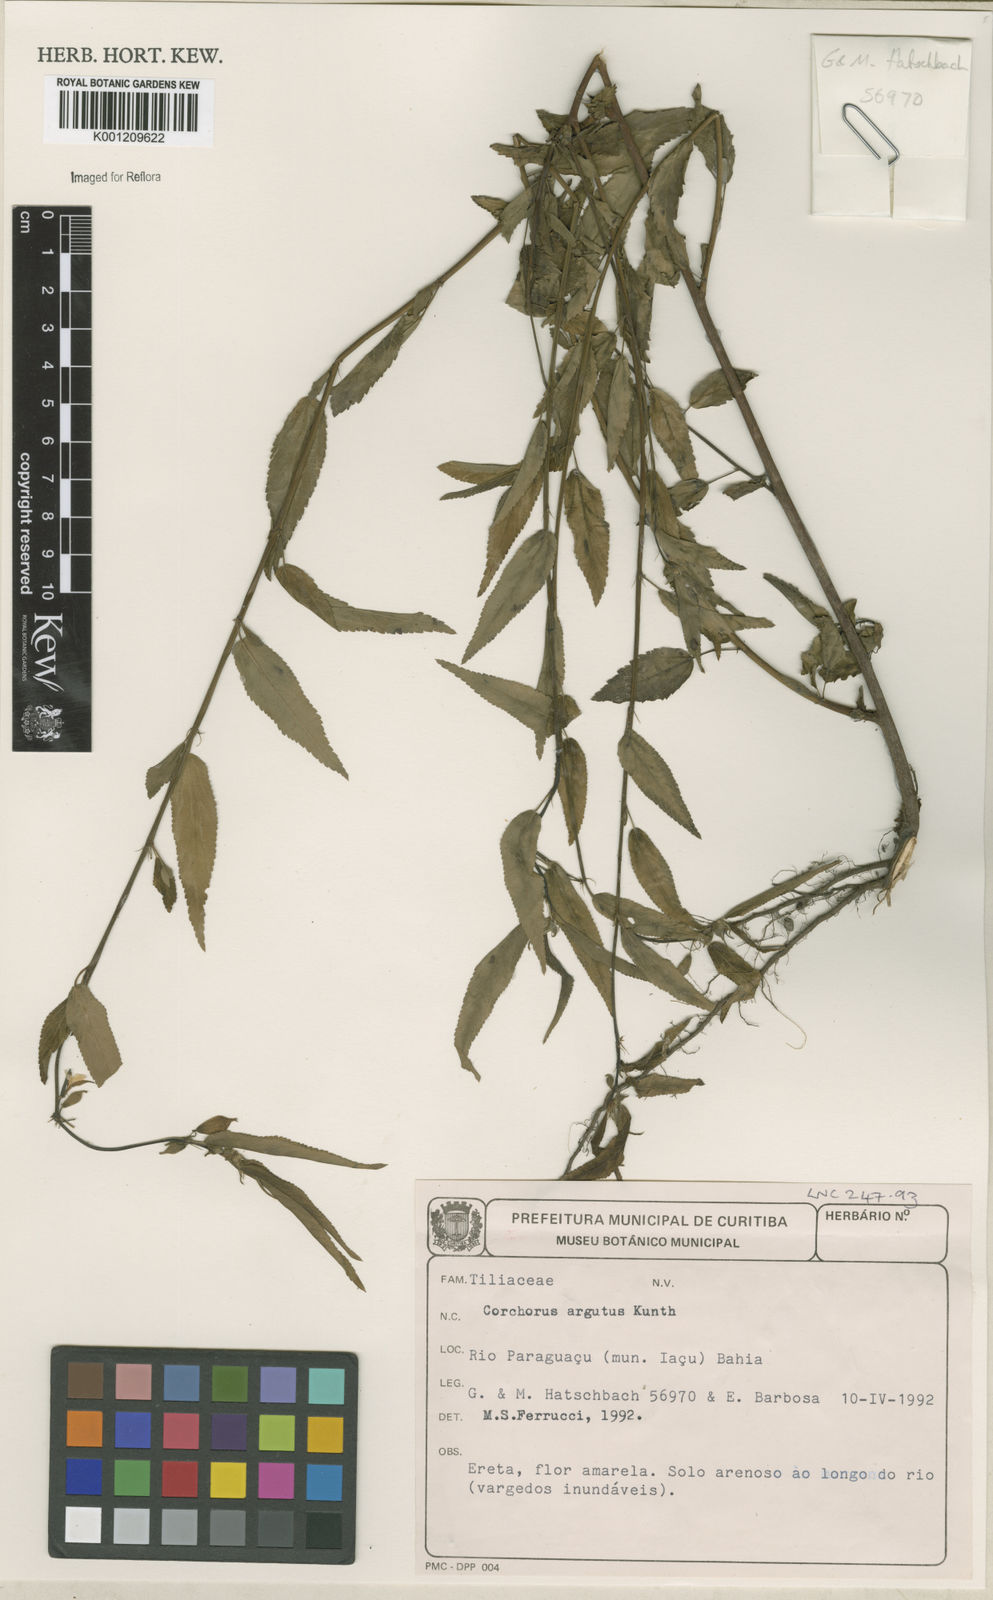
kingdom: Plantae
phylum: Tracheophyta
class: Magnoliopsida
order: Malvales
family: Malvaceae
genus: Corchorus
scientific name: Corchorus argutus
